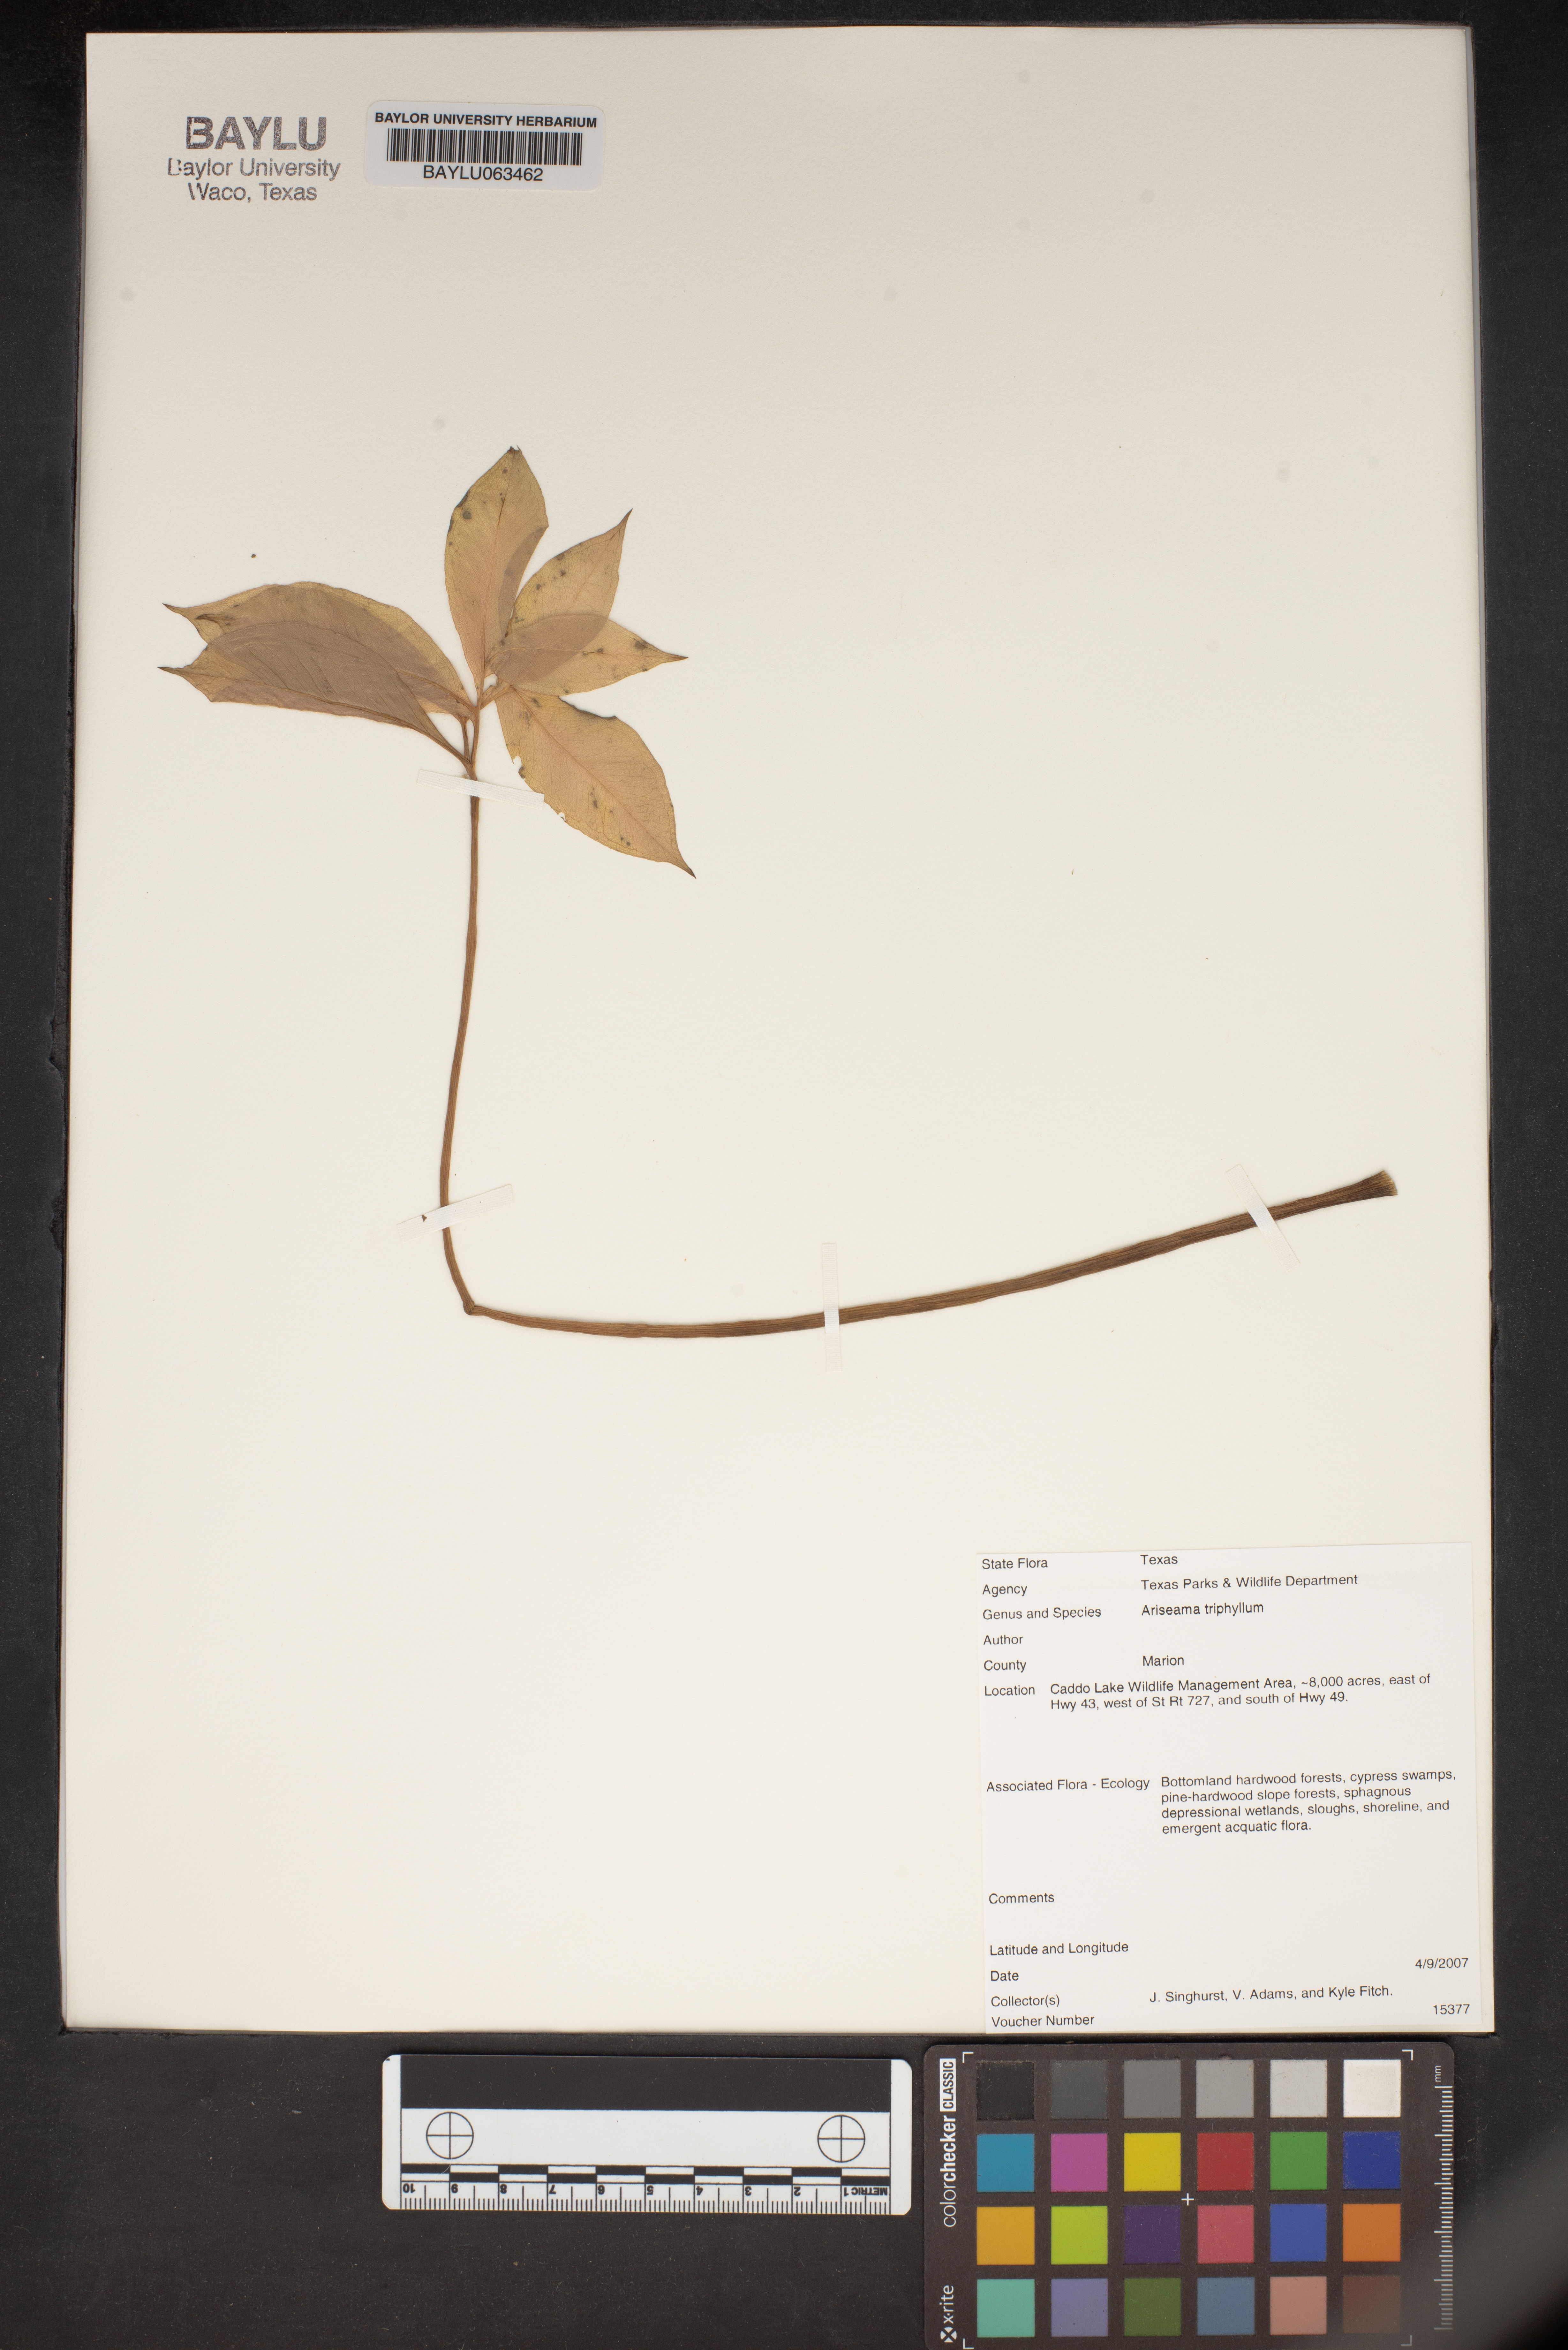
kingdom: Plantae
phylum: Tracheophyta
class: Liliopsida
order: Alismatales
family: Araceae
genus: Arisaema
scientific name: Arisaema triphyllum
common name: Jack-in-the-pulpit
